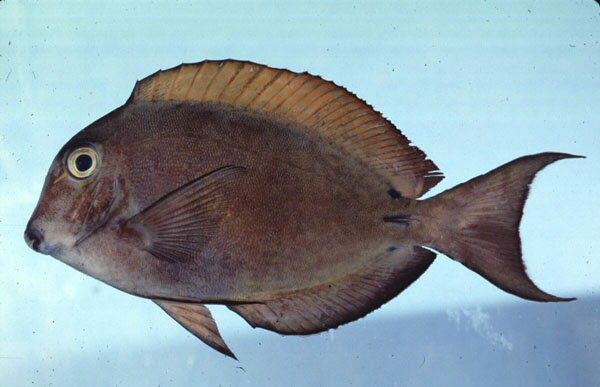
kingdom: Animalia
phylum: Chordata
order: Perciformes
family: Acanthuridae
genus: Acanthurus
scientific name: Acanthurus nigrofuscus
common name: Blackspot surgeonfish
